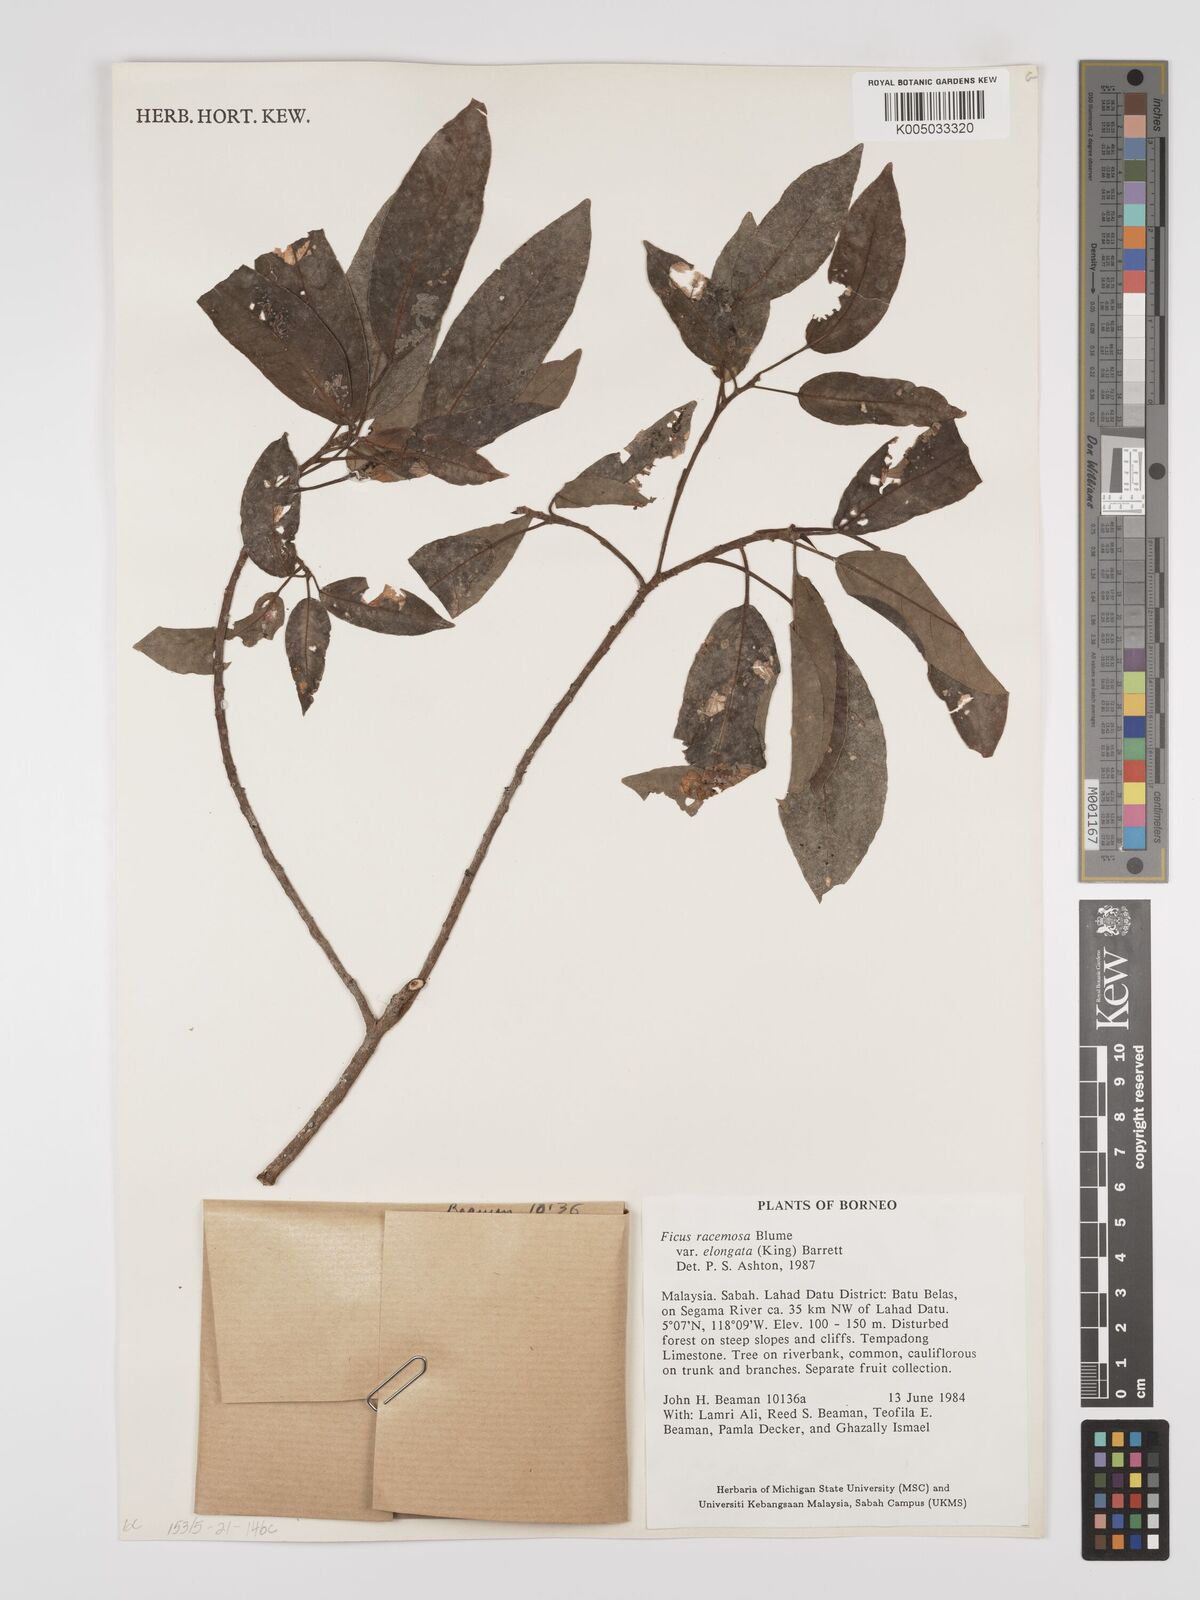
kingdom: Plantae
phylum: Tracheophyta
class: Magnoliopsida
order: Rosales
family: Moraceae
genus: Ficus
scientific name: Ficus
